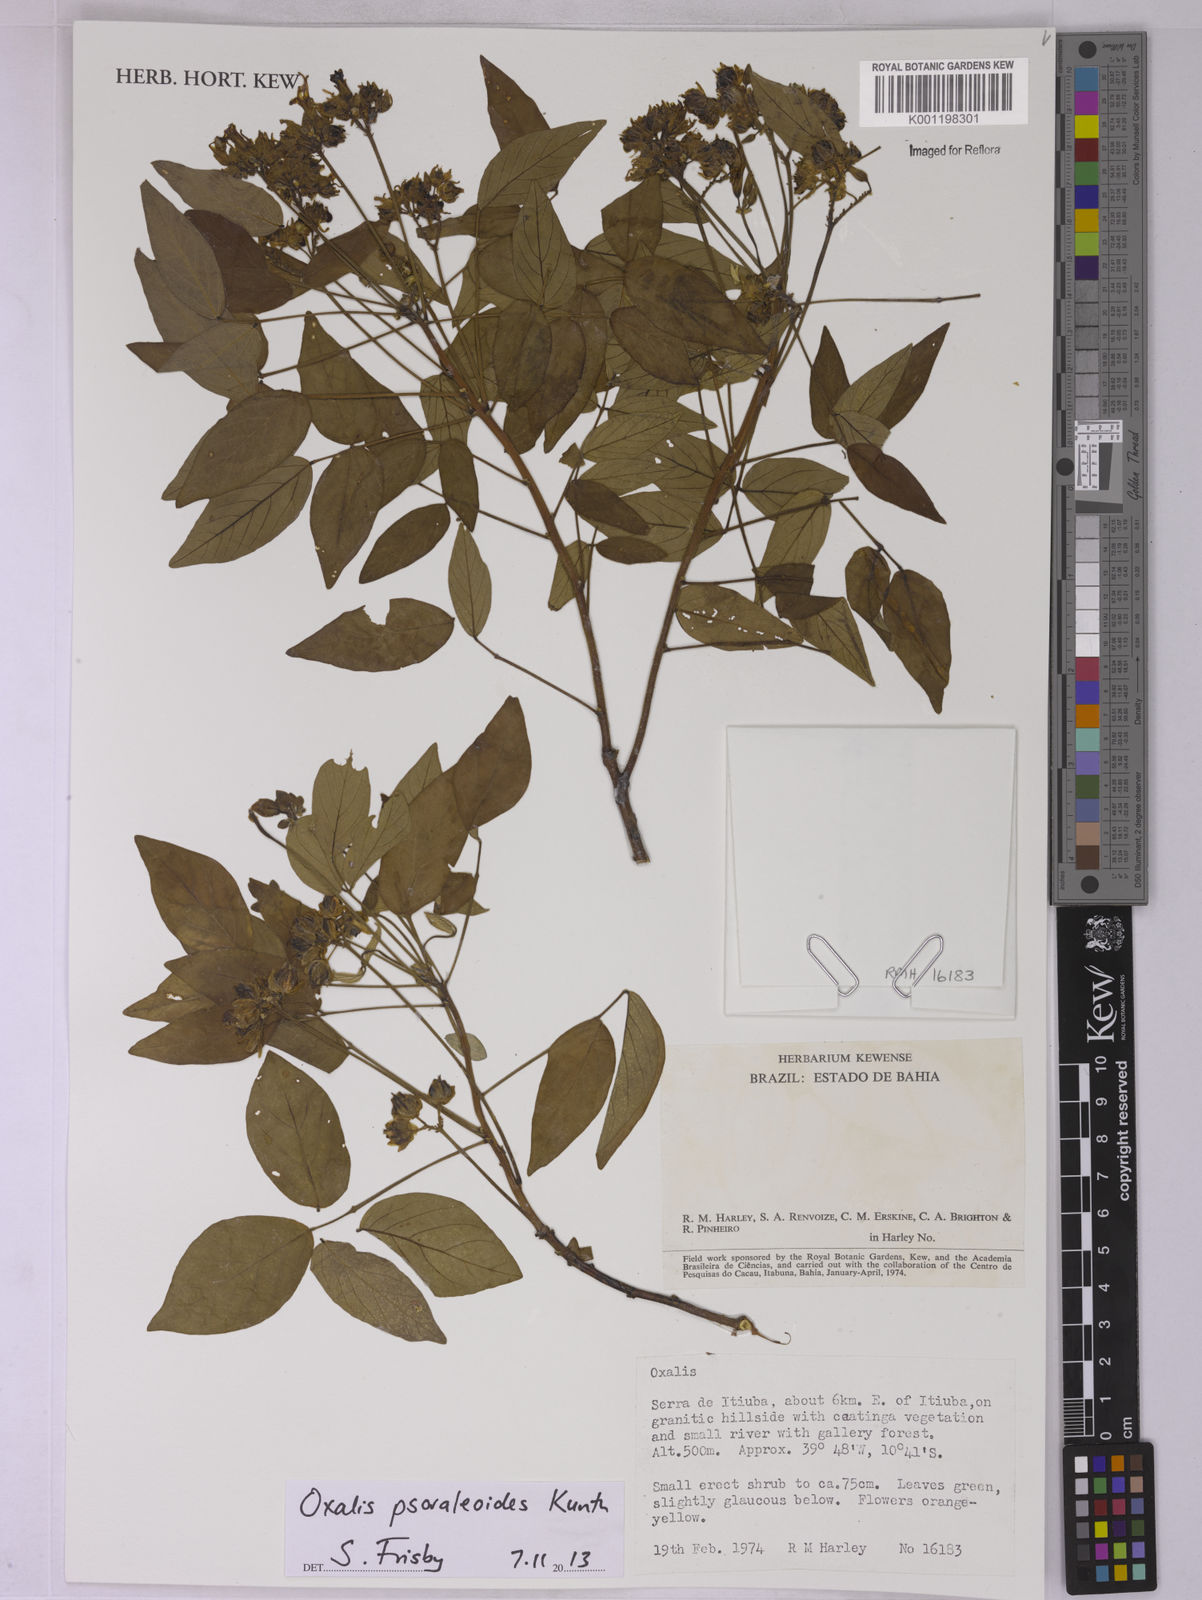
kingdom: Plantae
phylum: Tracheophyta
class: Magnoliopsida
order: Oxalidales
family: Oxalidaceae
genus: Oxalis
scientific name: Oxalis psoraleoides
